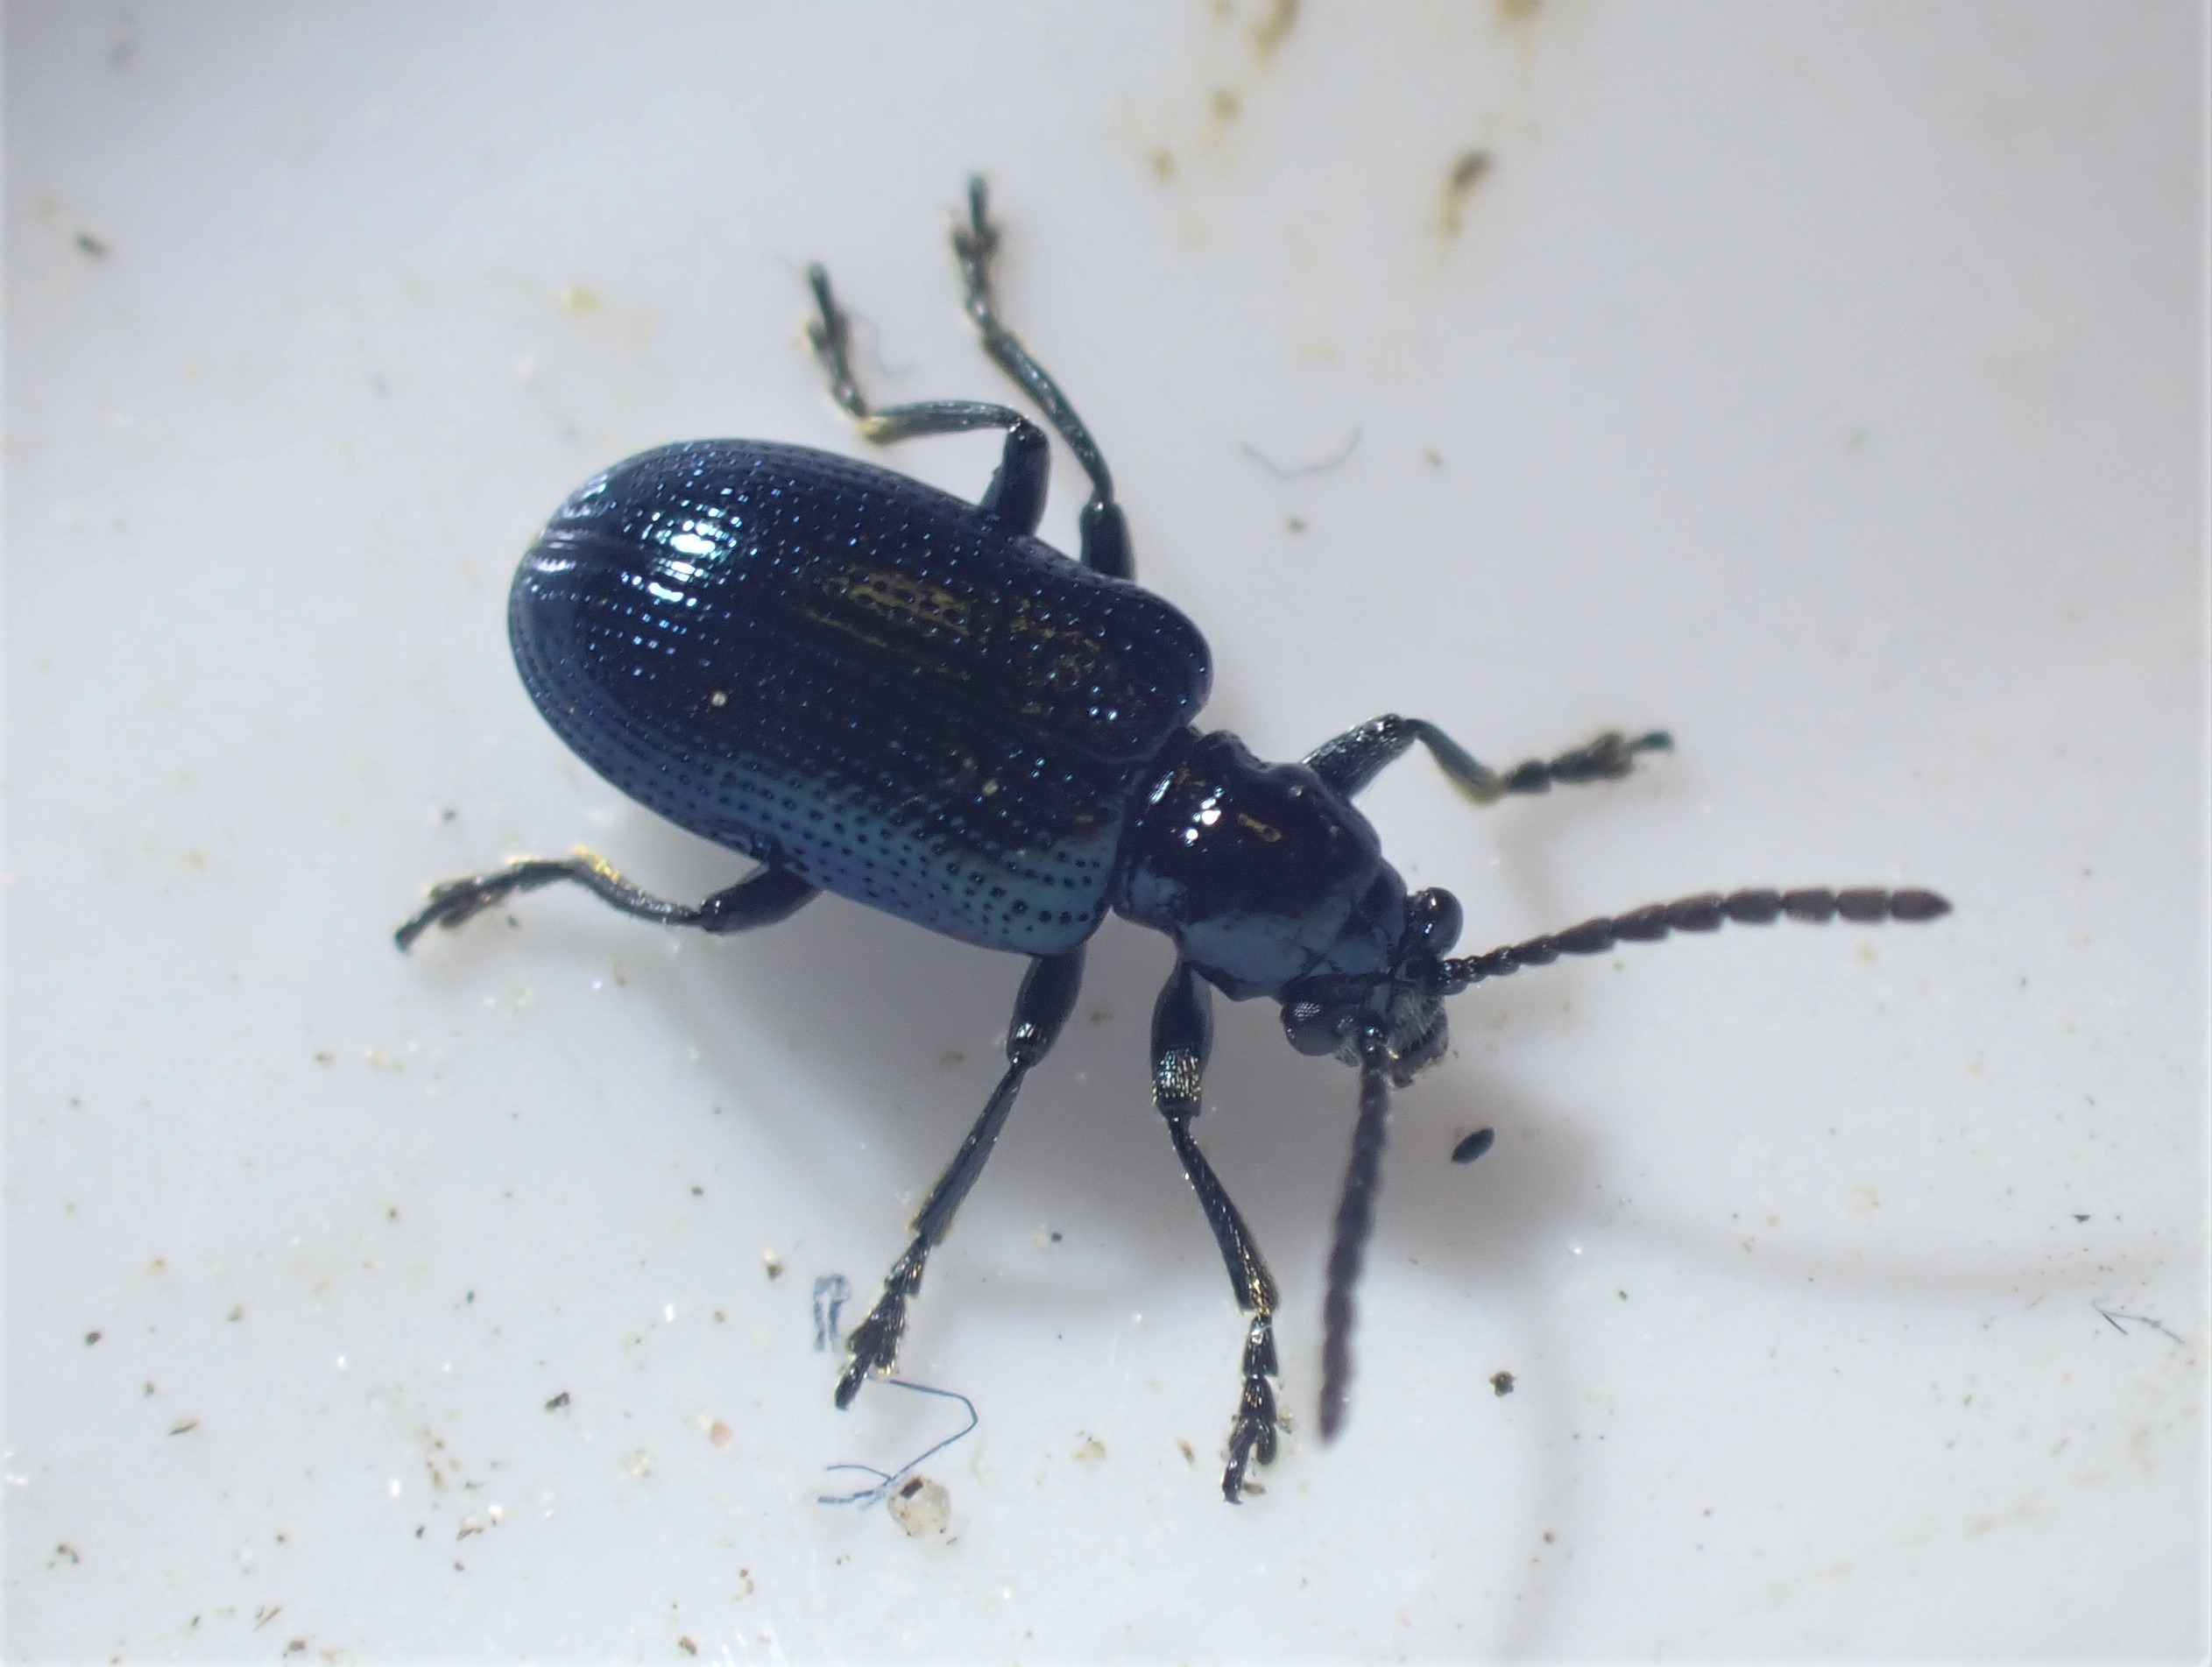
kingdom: Animalia
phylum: Arthropoda
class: Insecta
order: Coleoptera
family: Chrysomelidae
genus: Oulema
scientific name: Oulema gallaeciana
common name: Sortblå kornbladbille
